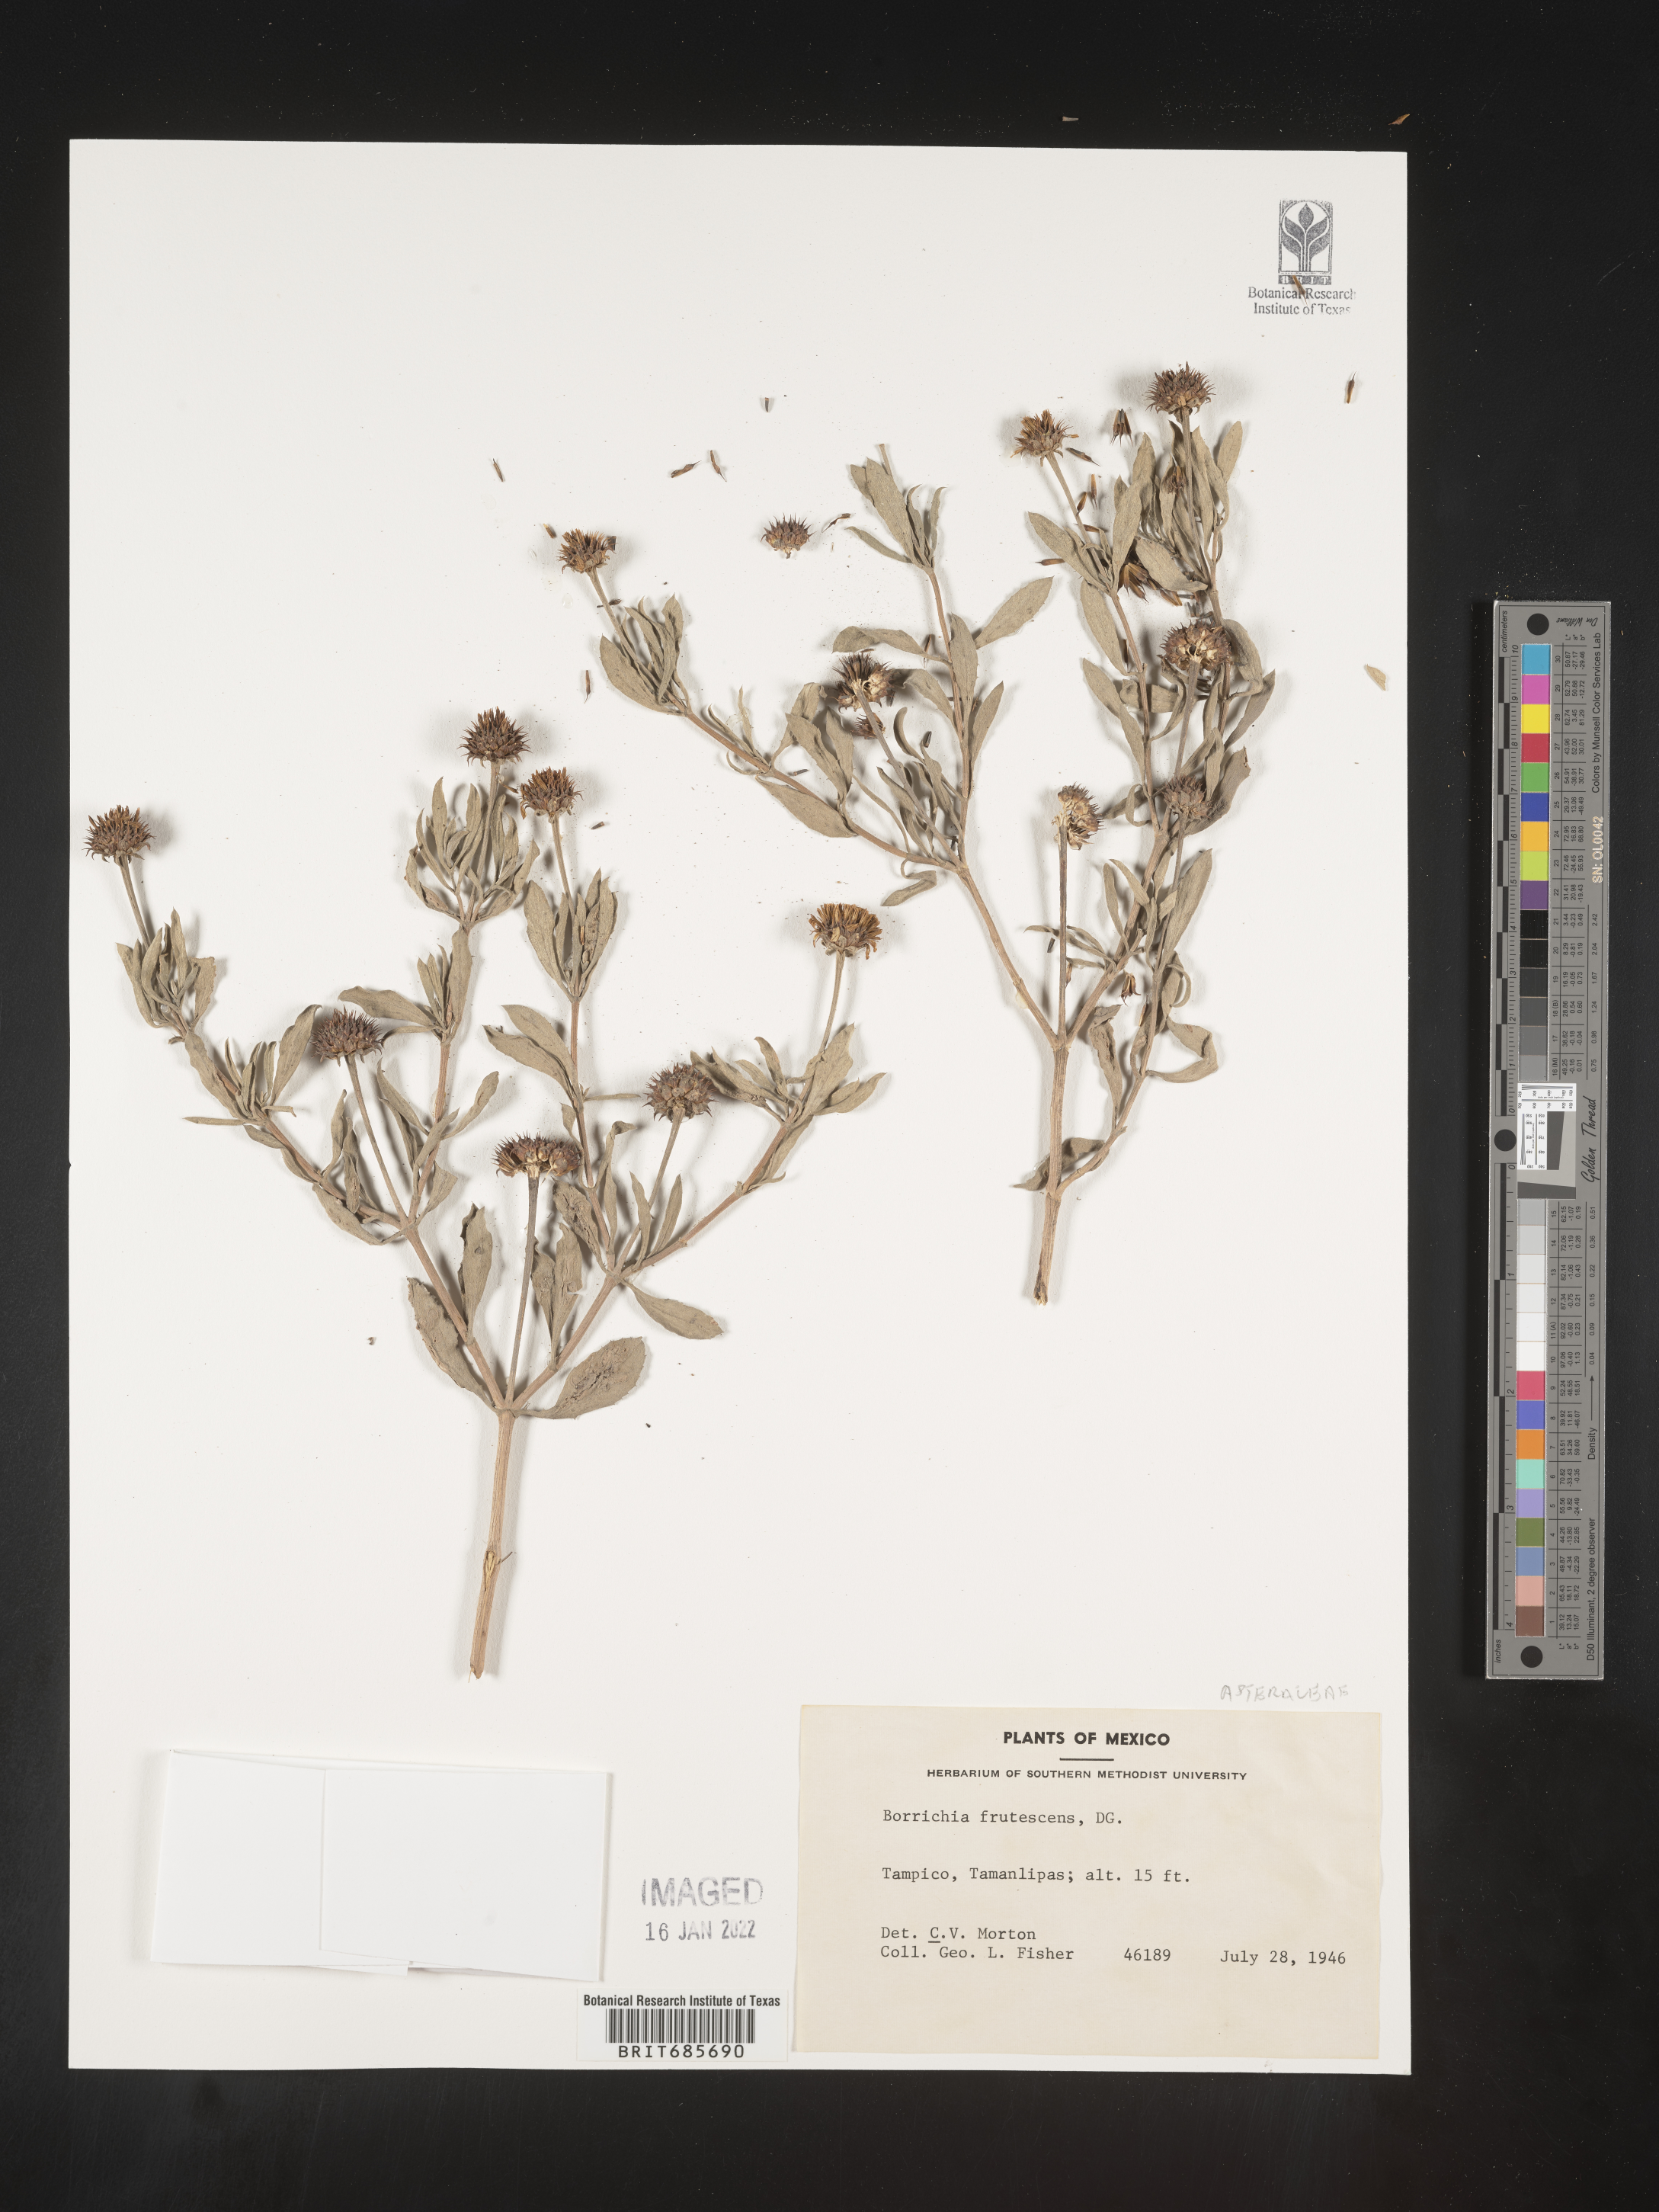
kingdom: Plantae
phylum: Tracheophyta
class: Magnoliopsida
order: Asterales
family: Asteraceae
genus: Borrichia
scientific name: Borrichia
